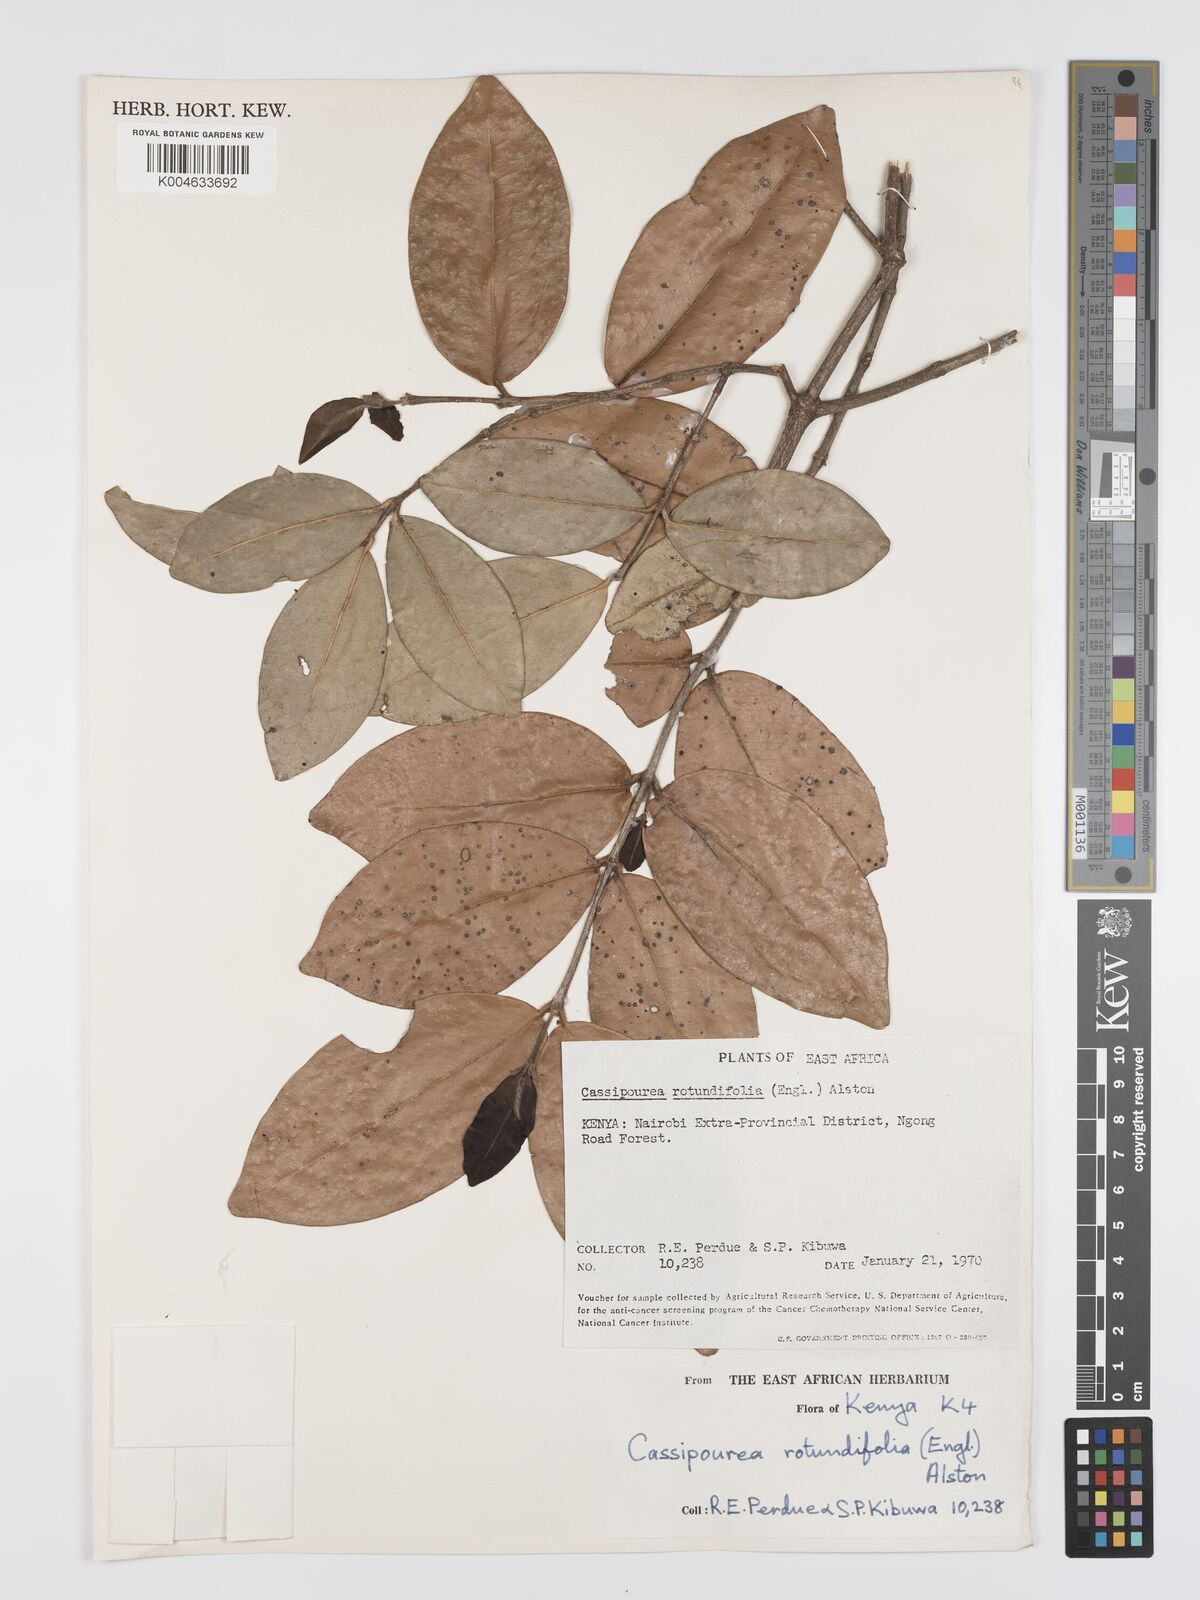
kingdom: Plantae
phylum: Tracheophyta
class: Magnoliopsida
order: Malpighiales
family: Rhizophoraceae
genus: Cassipourea
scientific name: Cassipourea rotundifolia
